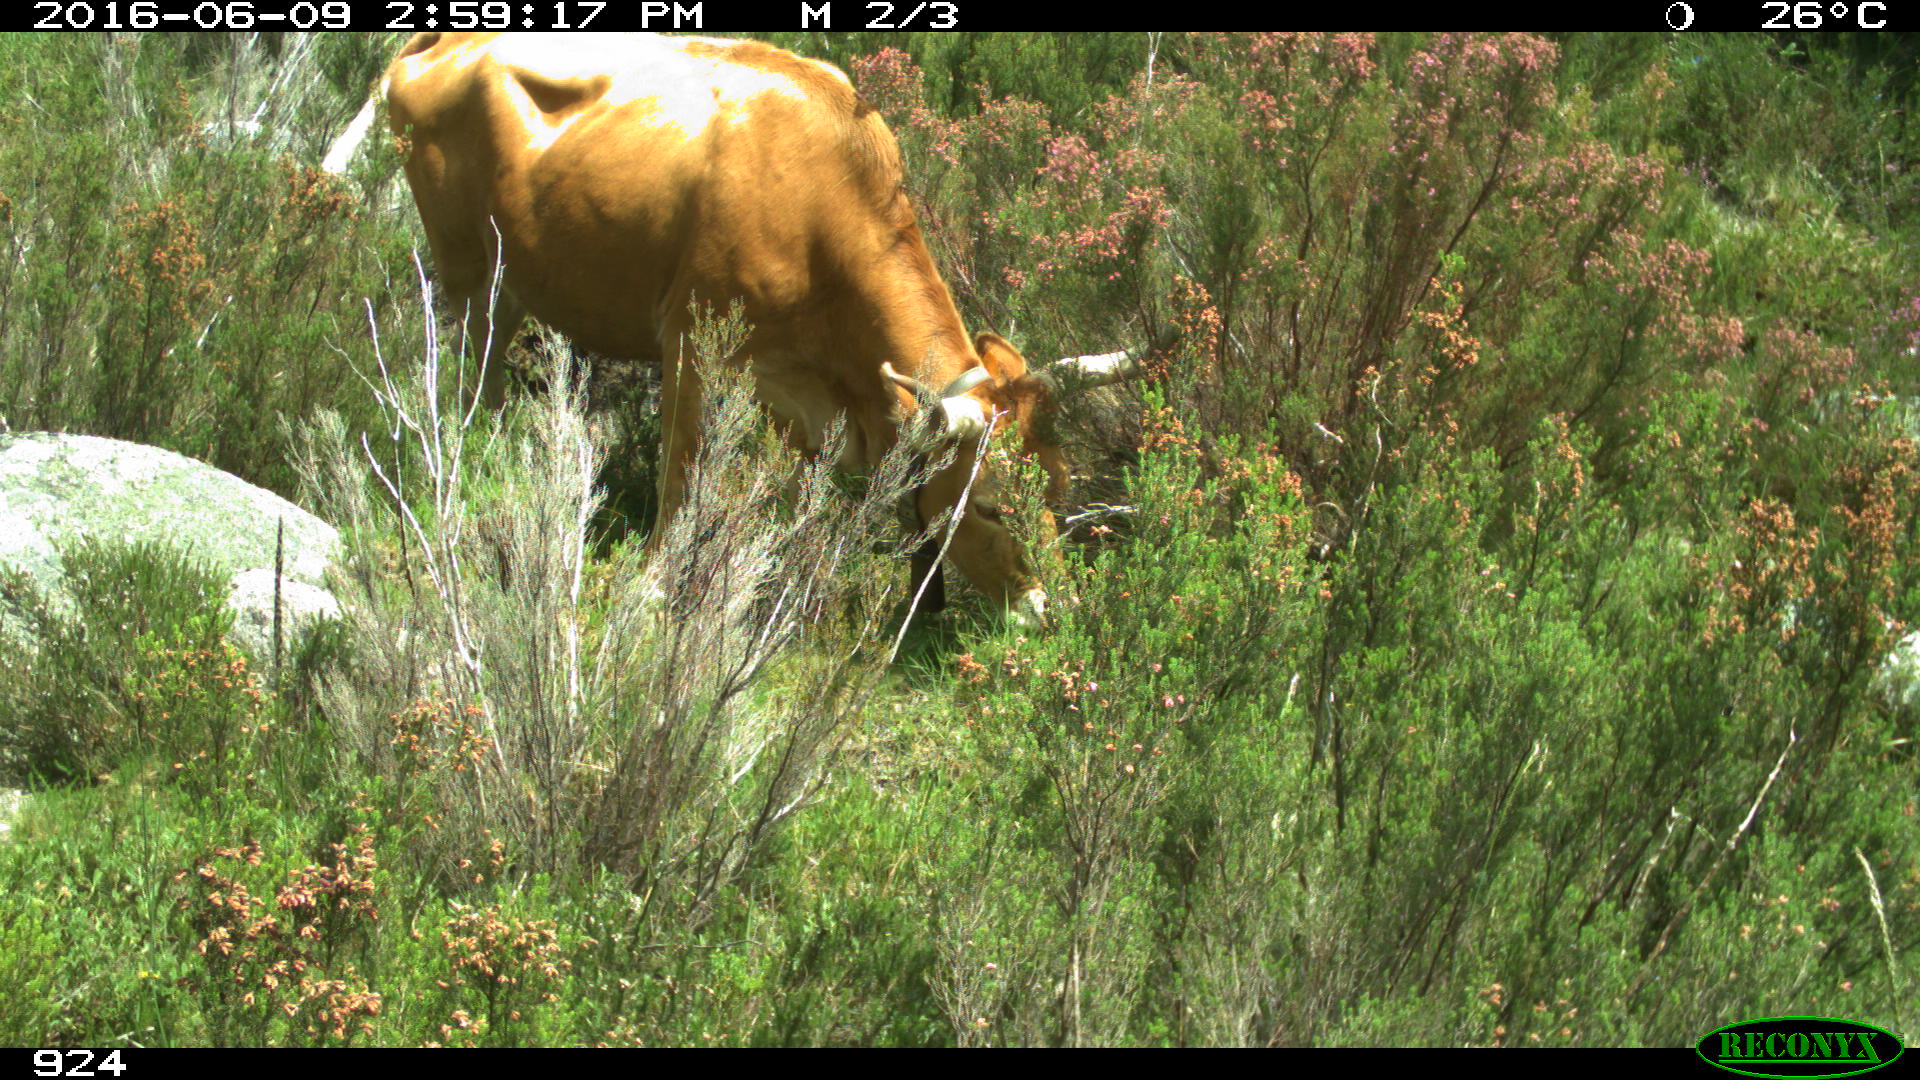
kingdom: Animalia
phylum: Chordata
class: Mammalia
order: Artiodactyla
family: Bovidae
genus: Bos
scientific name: Bos taurus
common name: Domesticated cattle
